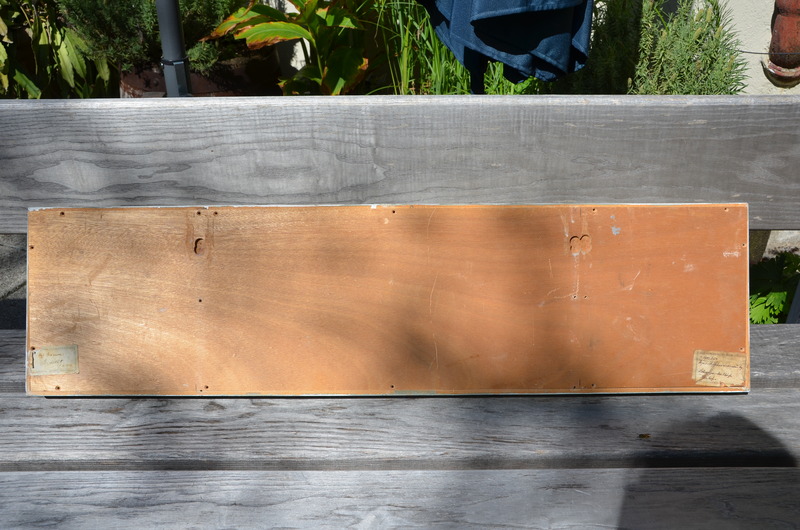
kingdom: Animalia
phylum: Chordata
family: Aspidorhynchidae
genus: Aspidorhynchus
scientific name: Aspidorhynchus acutirostris
